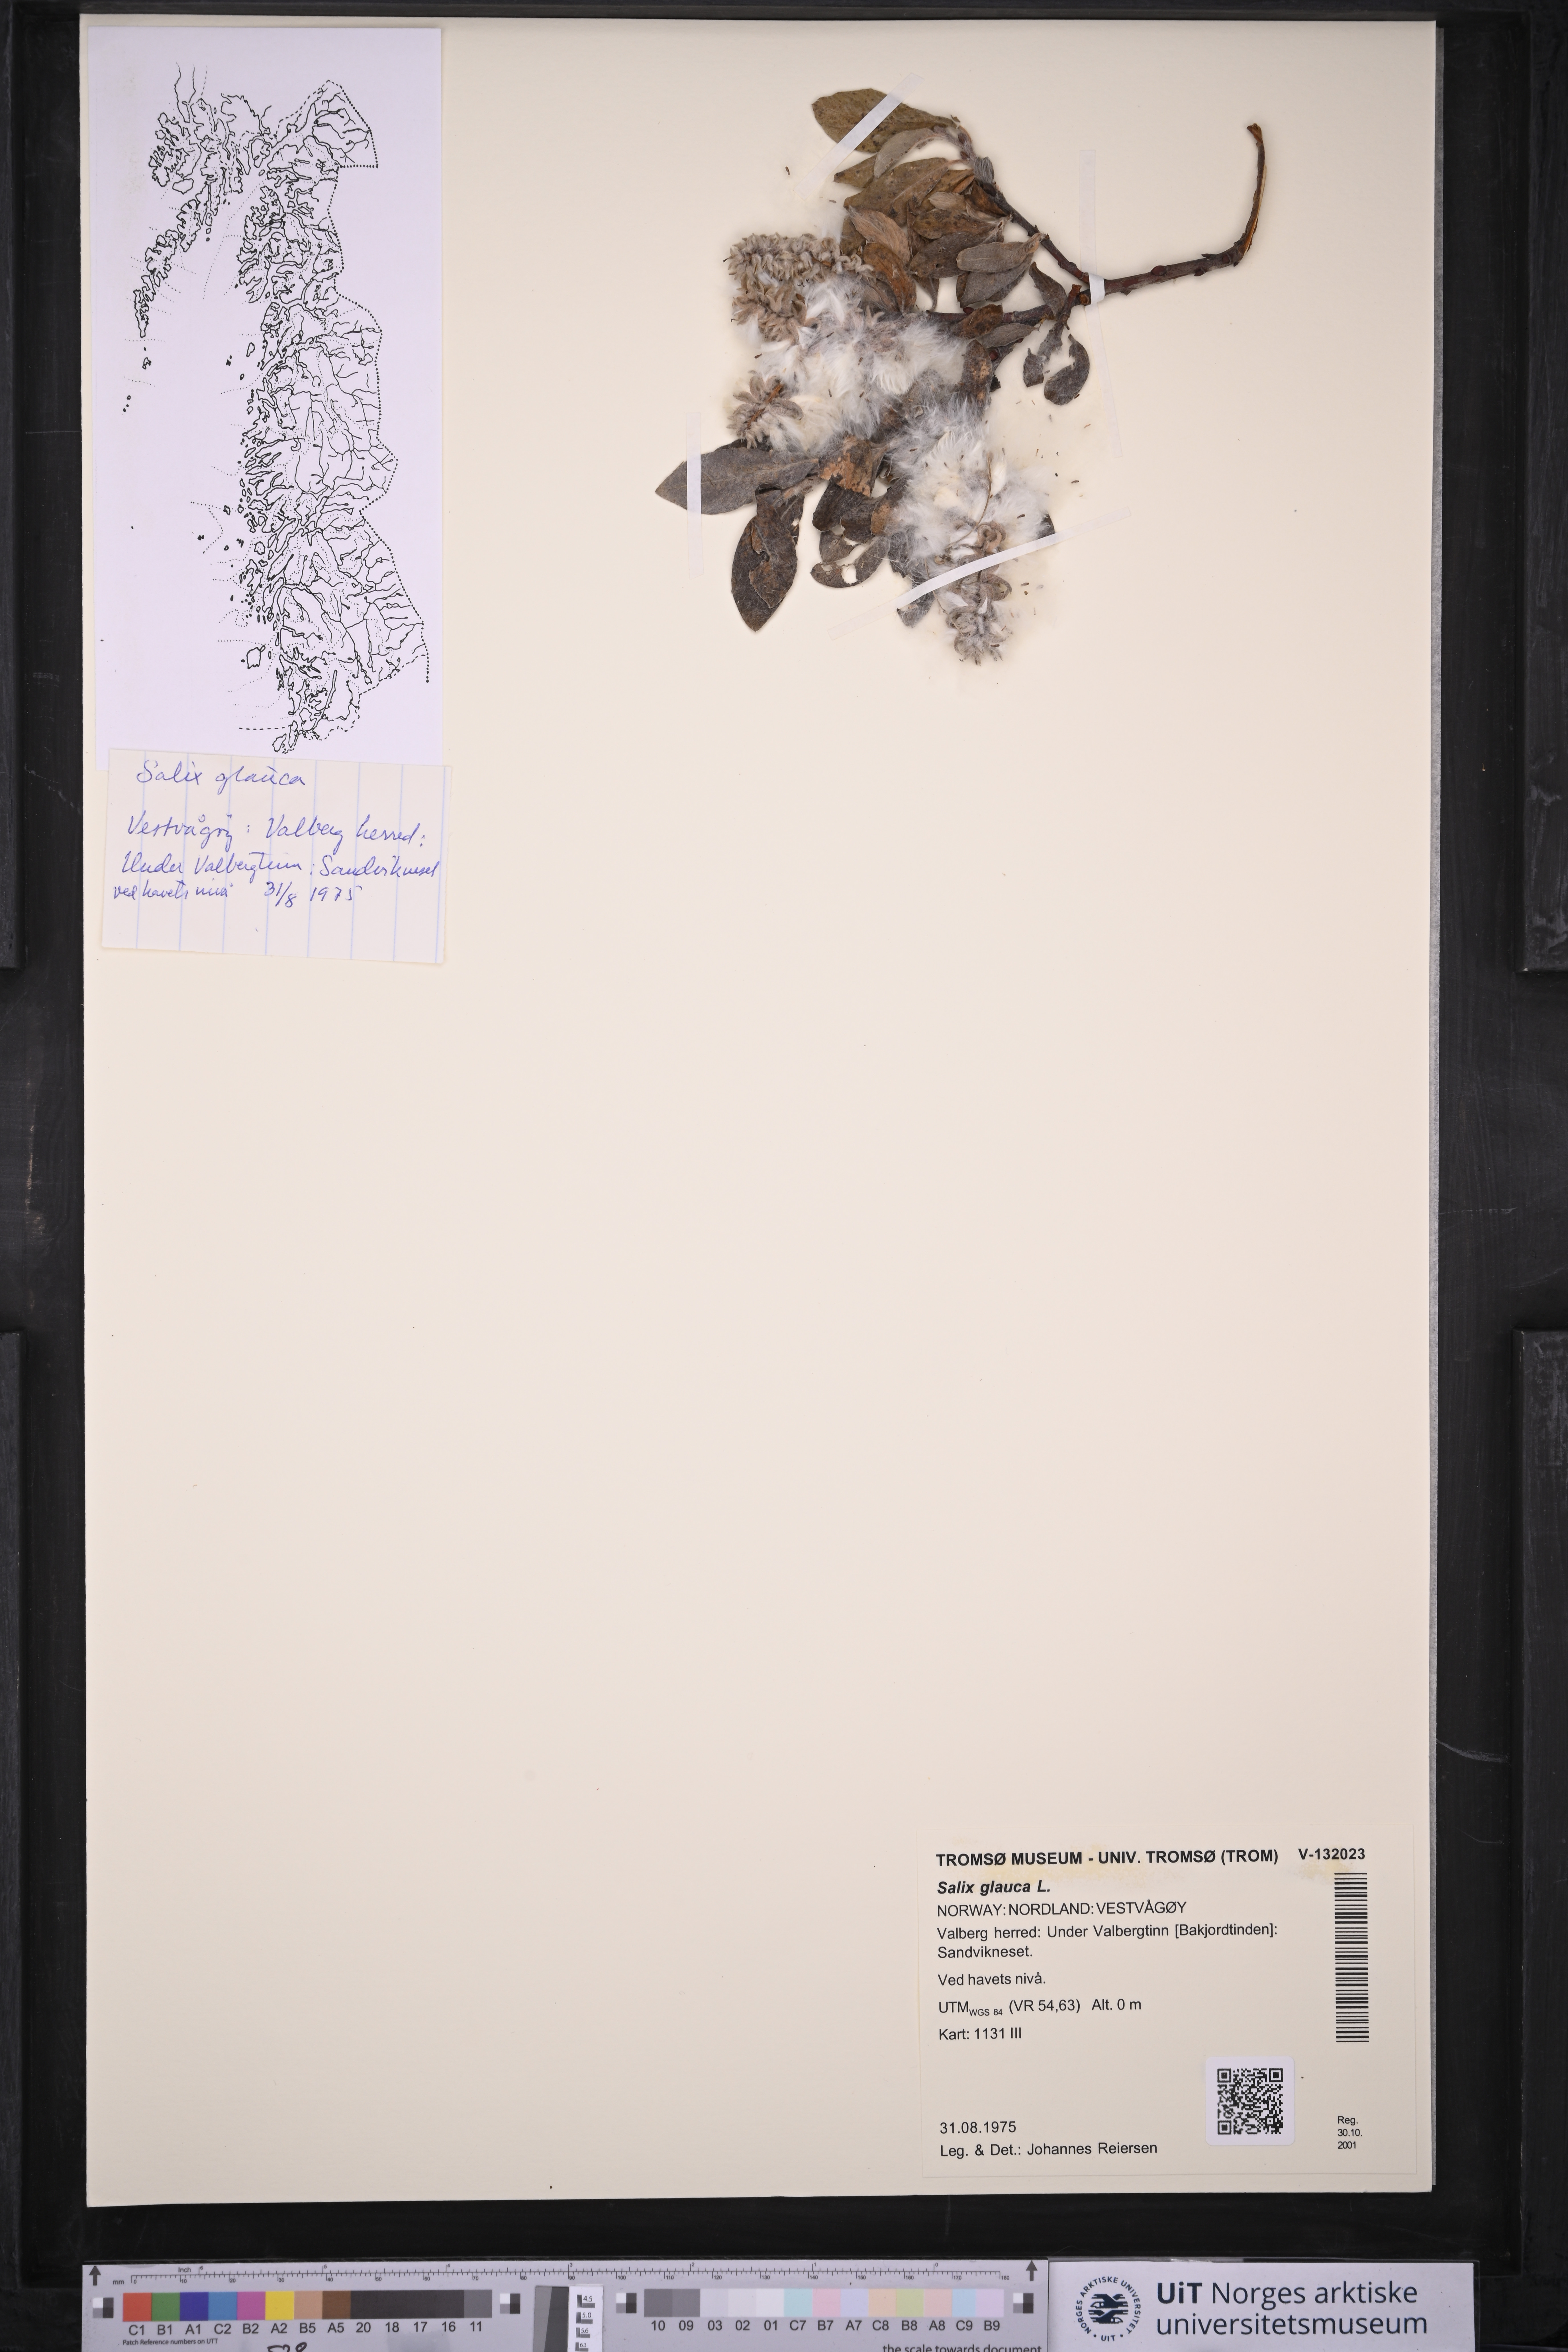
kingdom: Plantae
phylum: Tracheophyta
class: Magnoliopsida
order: Malpighiales
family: Salicaceae
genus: Salix
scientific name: Salix glauca
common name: Glaucous willow
